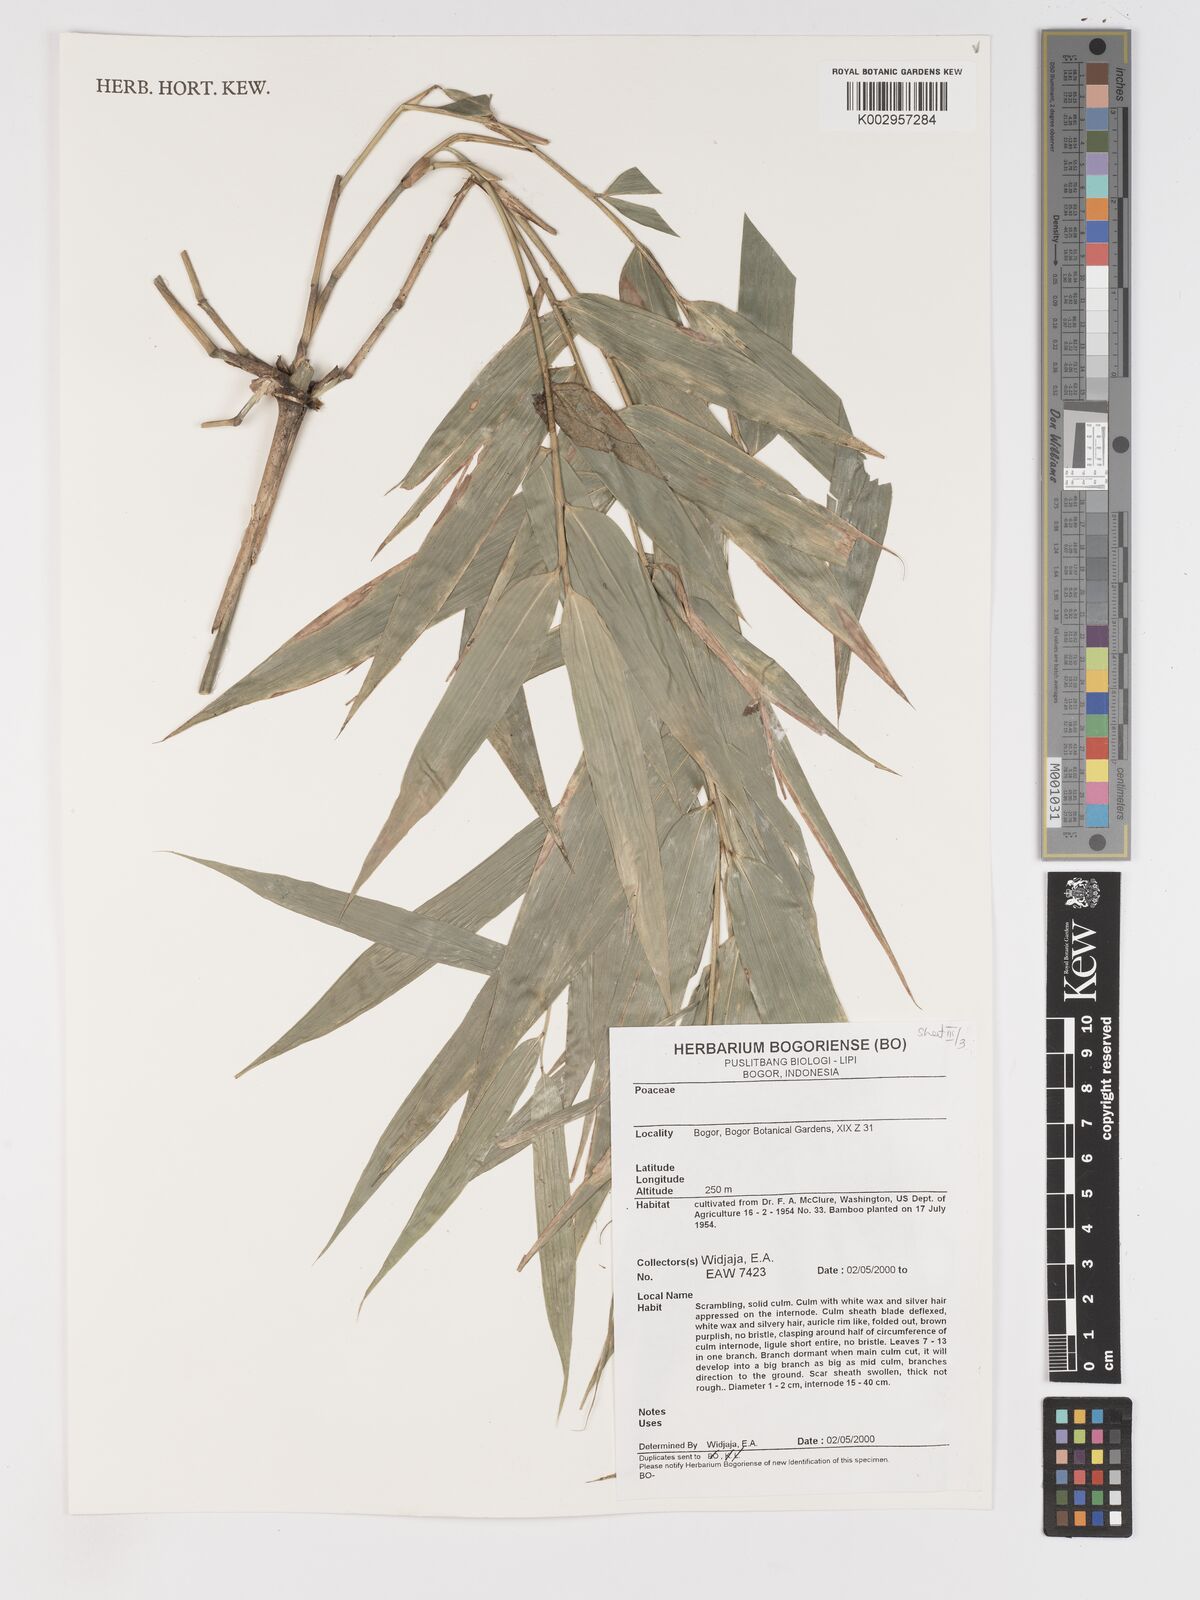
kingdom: Plantae
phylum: Tracheophyta
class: Liliopsida
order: Poales
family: Poaceae
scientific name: Poaceae
